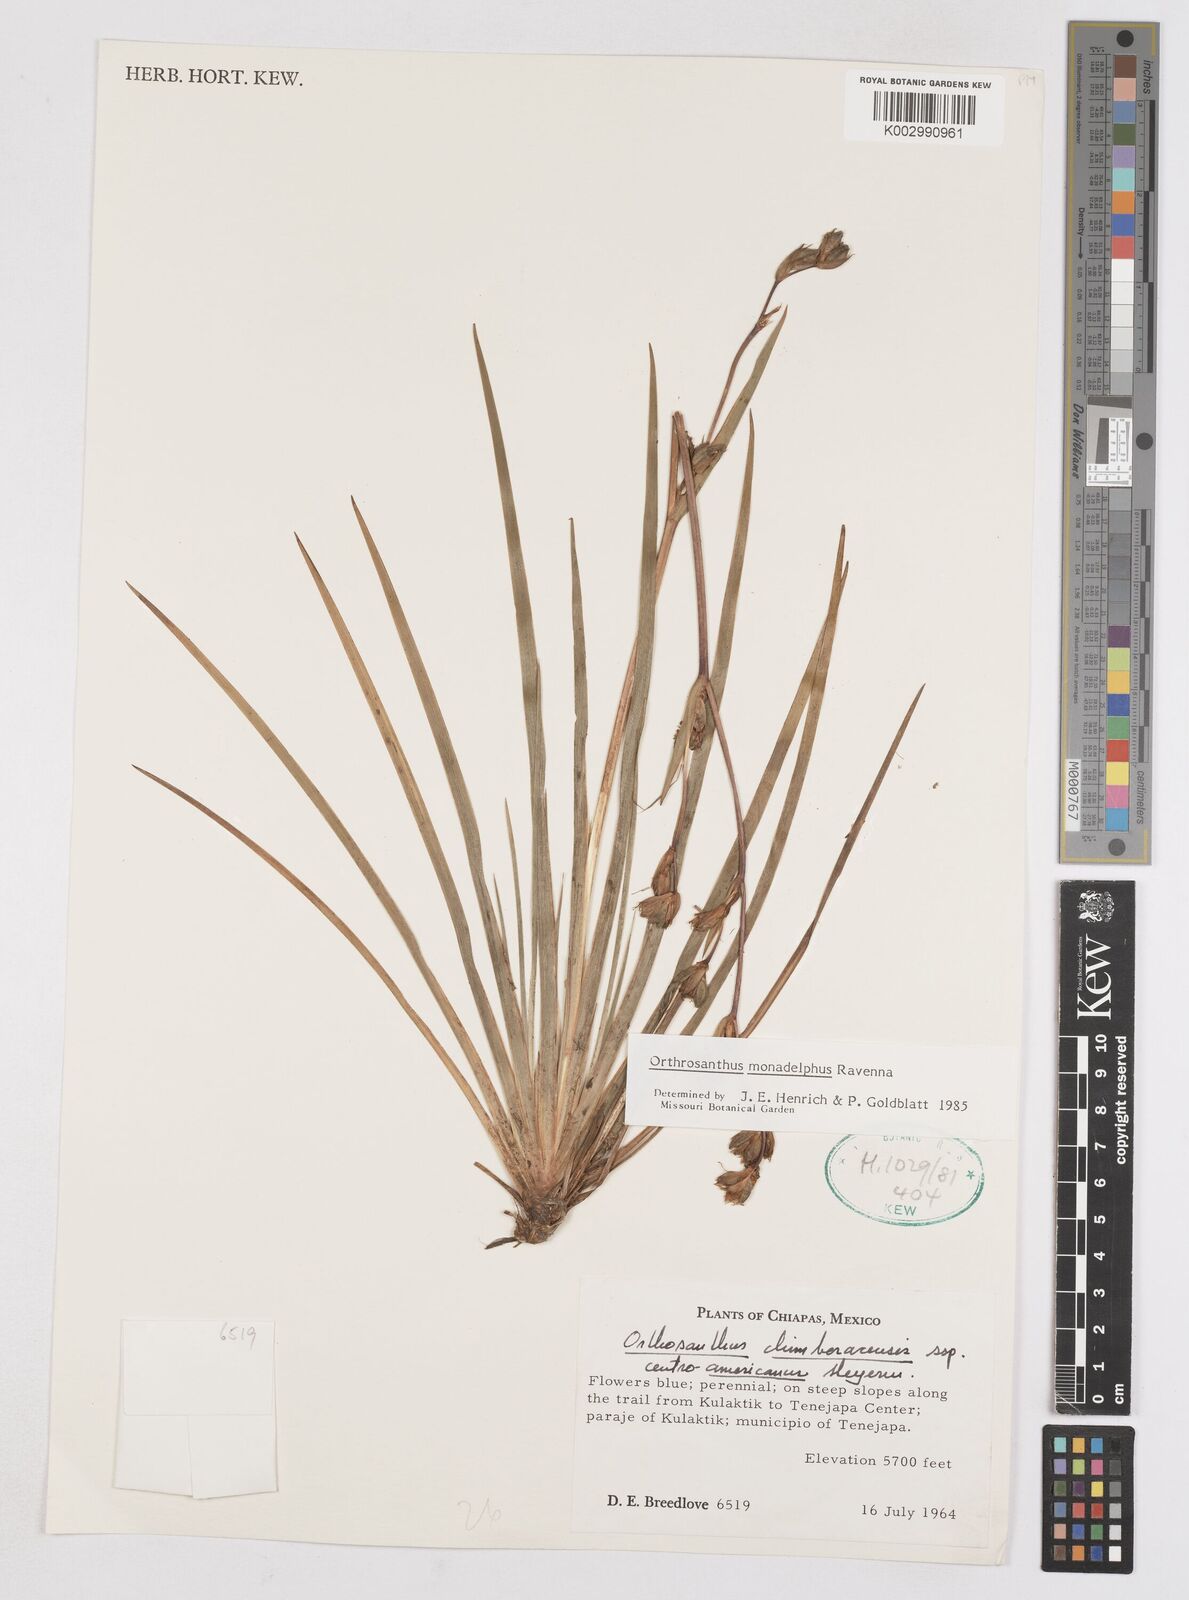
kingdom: Plantae
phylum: Tracheophyta
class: Liliopsida
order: Asparagales
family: Iridaceae
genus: Orthrosanthus
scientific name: Orthrosanthus monadelphus
